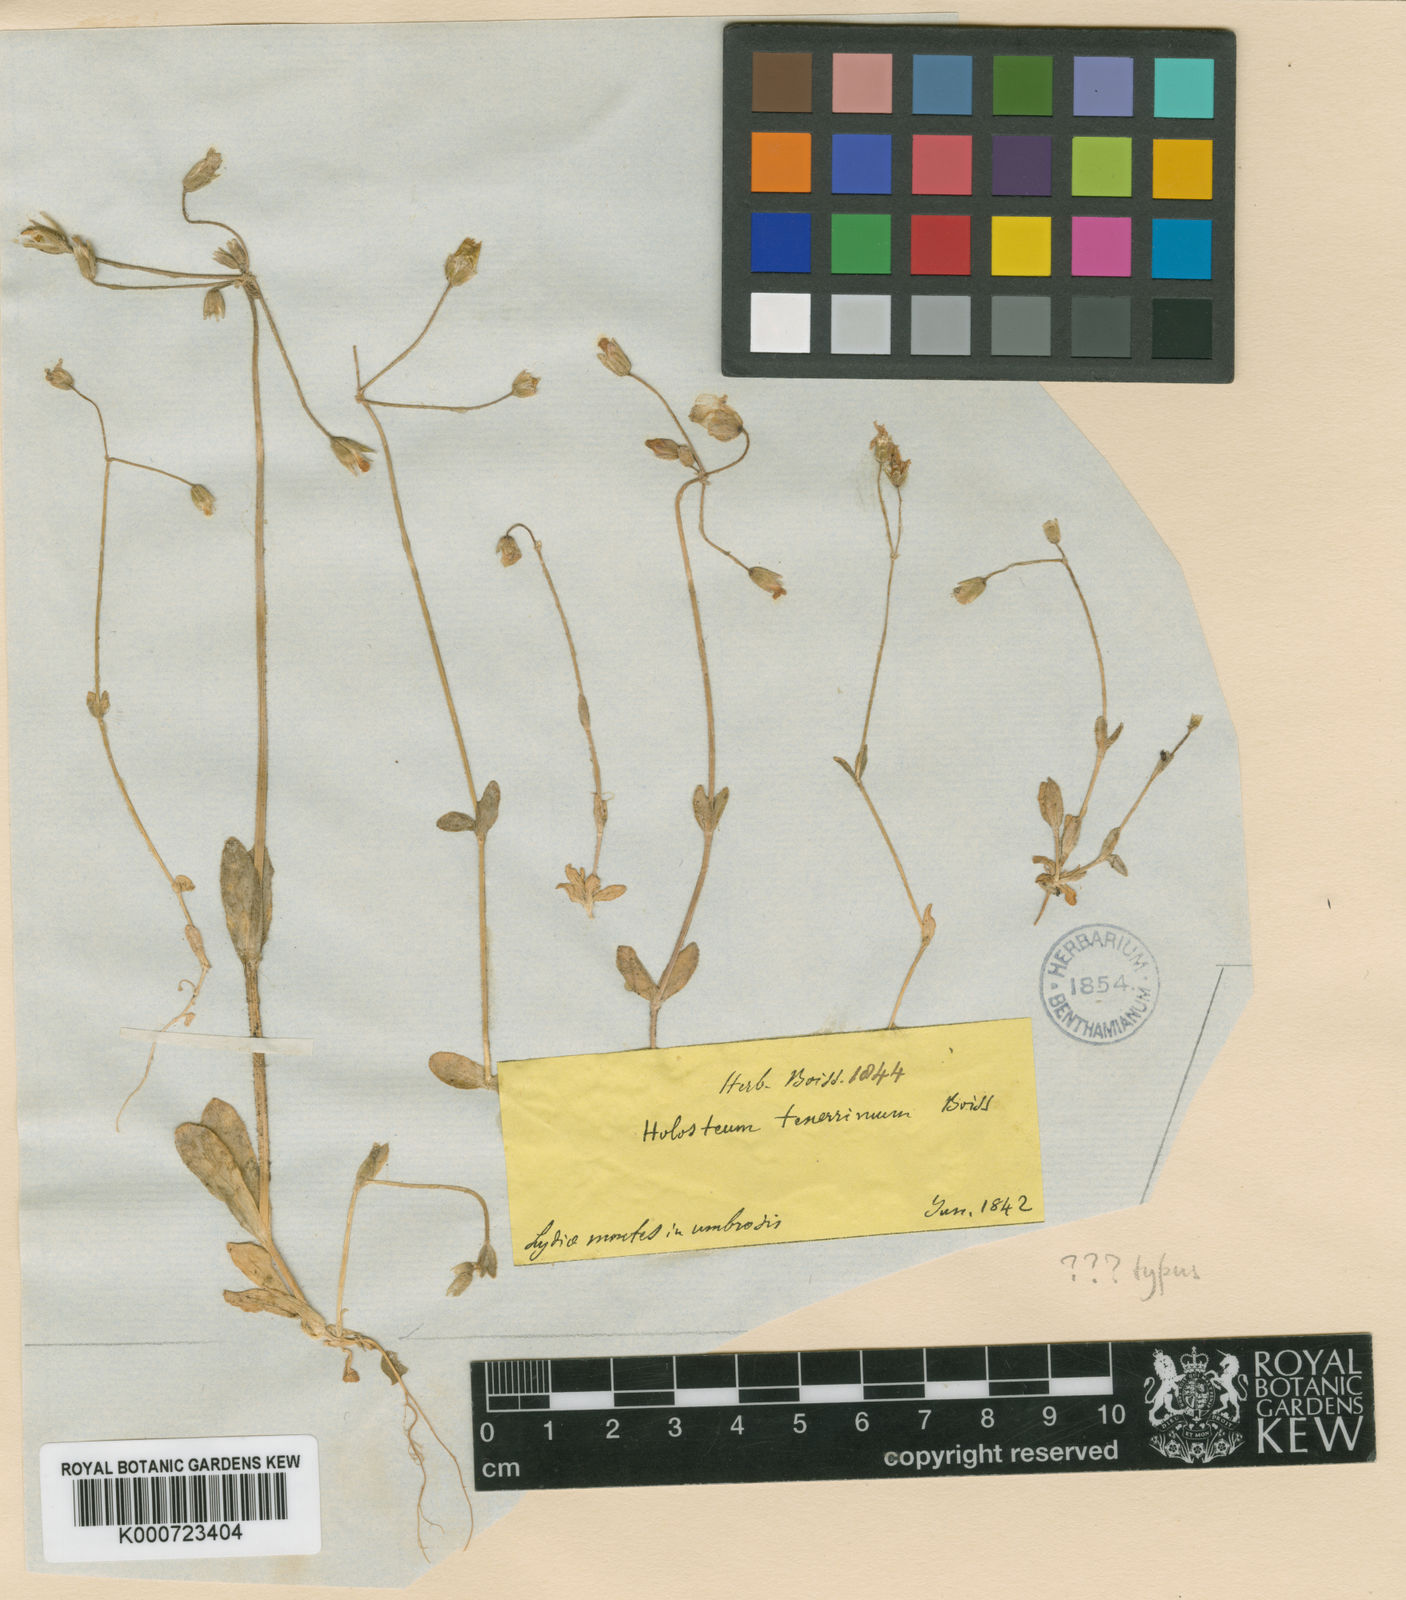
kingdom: Plantae
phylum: Tracheophyta
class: Magnoliopsida
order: Caryophyllales
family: Caryophyllaceae
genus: Holosteum
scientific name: Holosteum umbellatum
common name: Jagged chickweed
